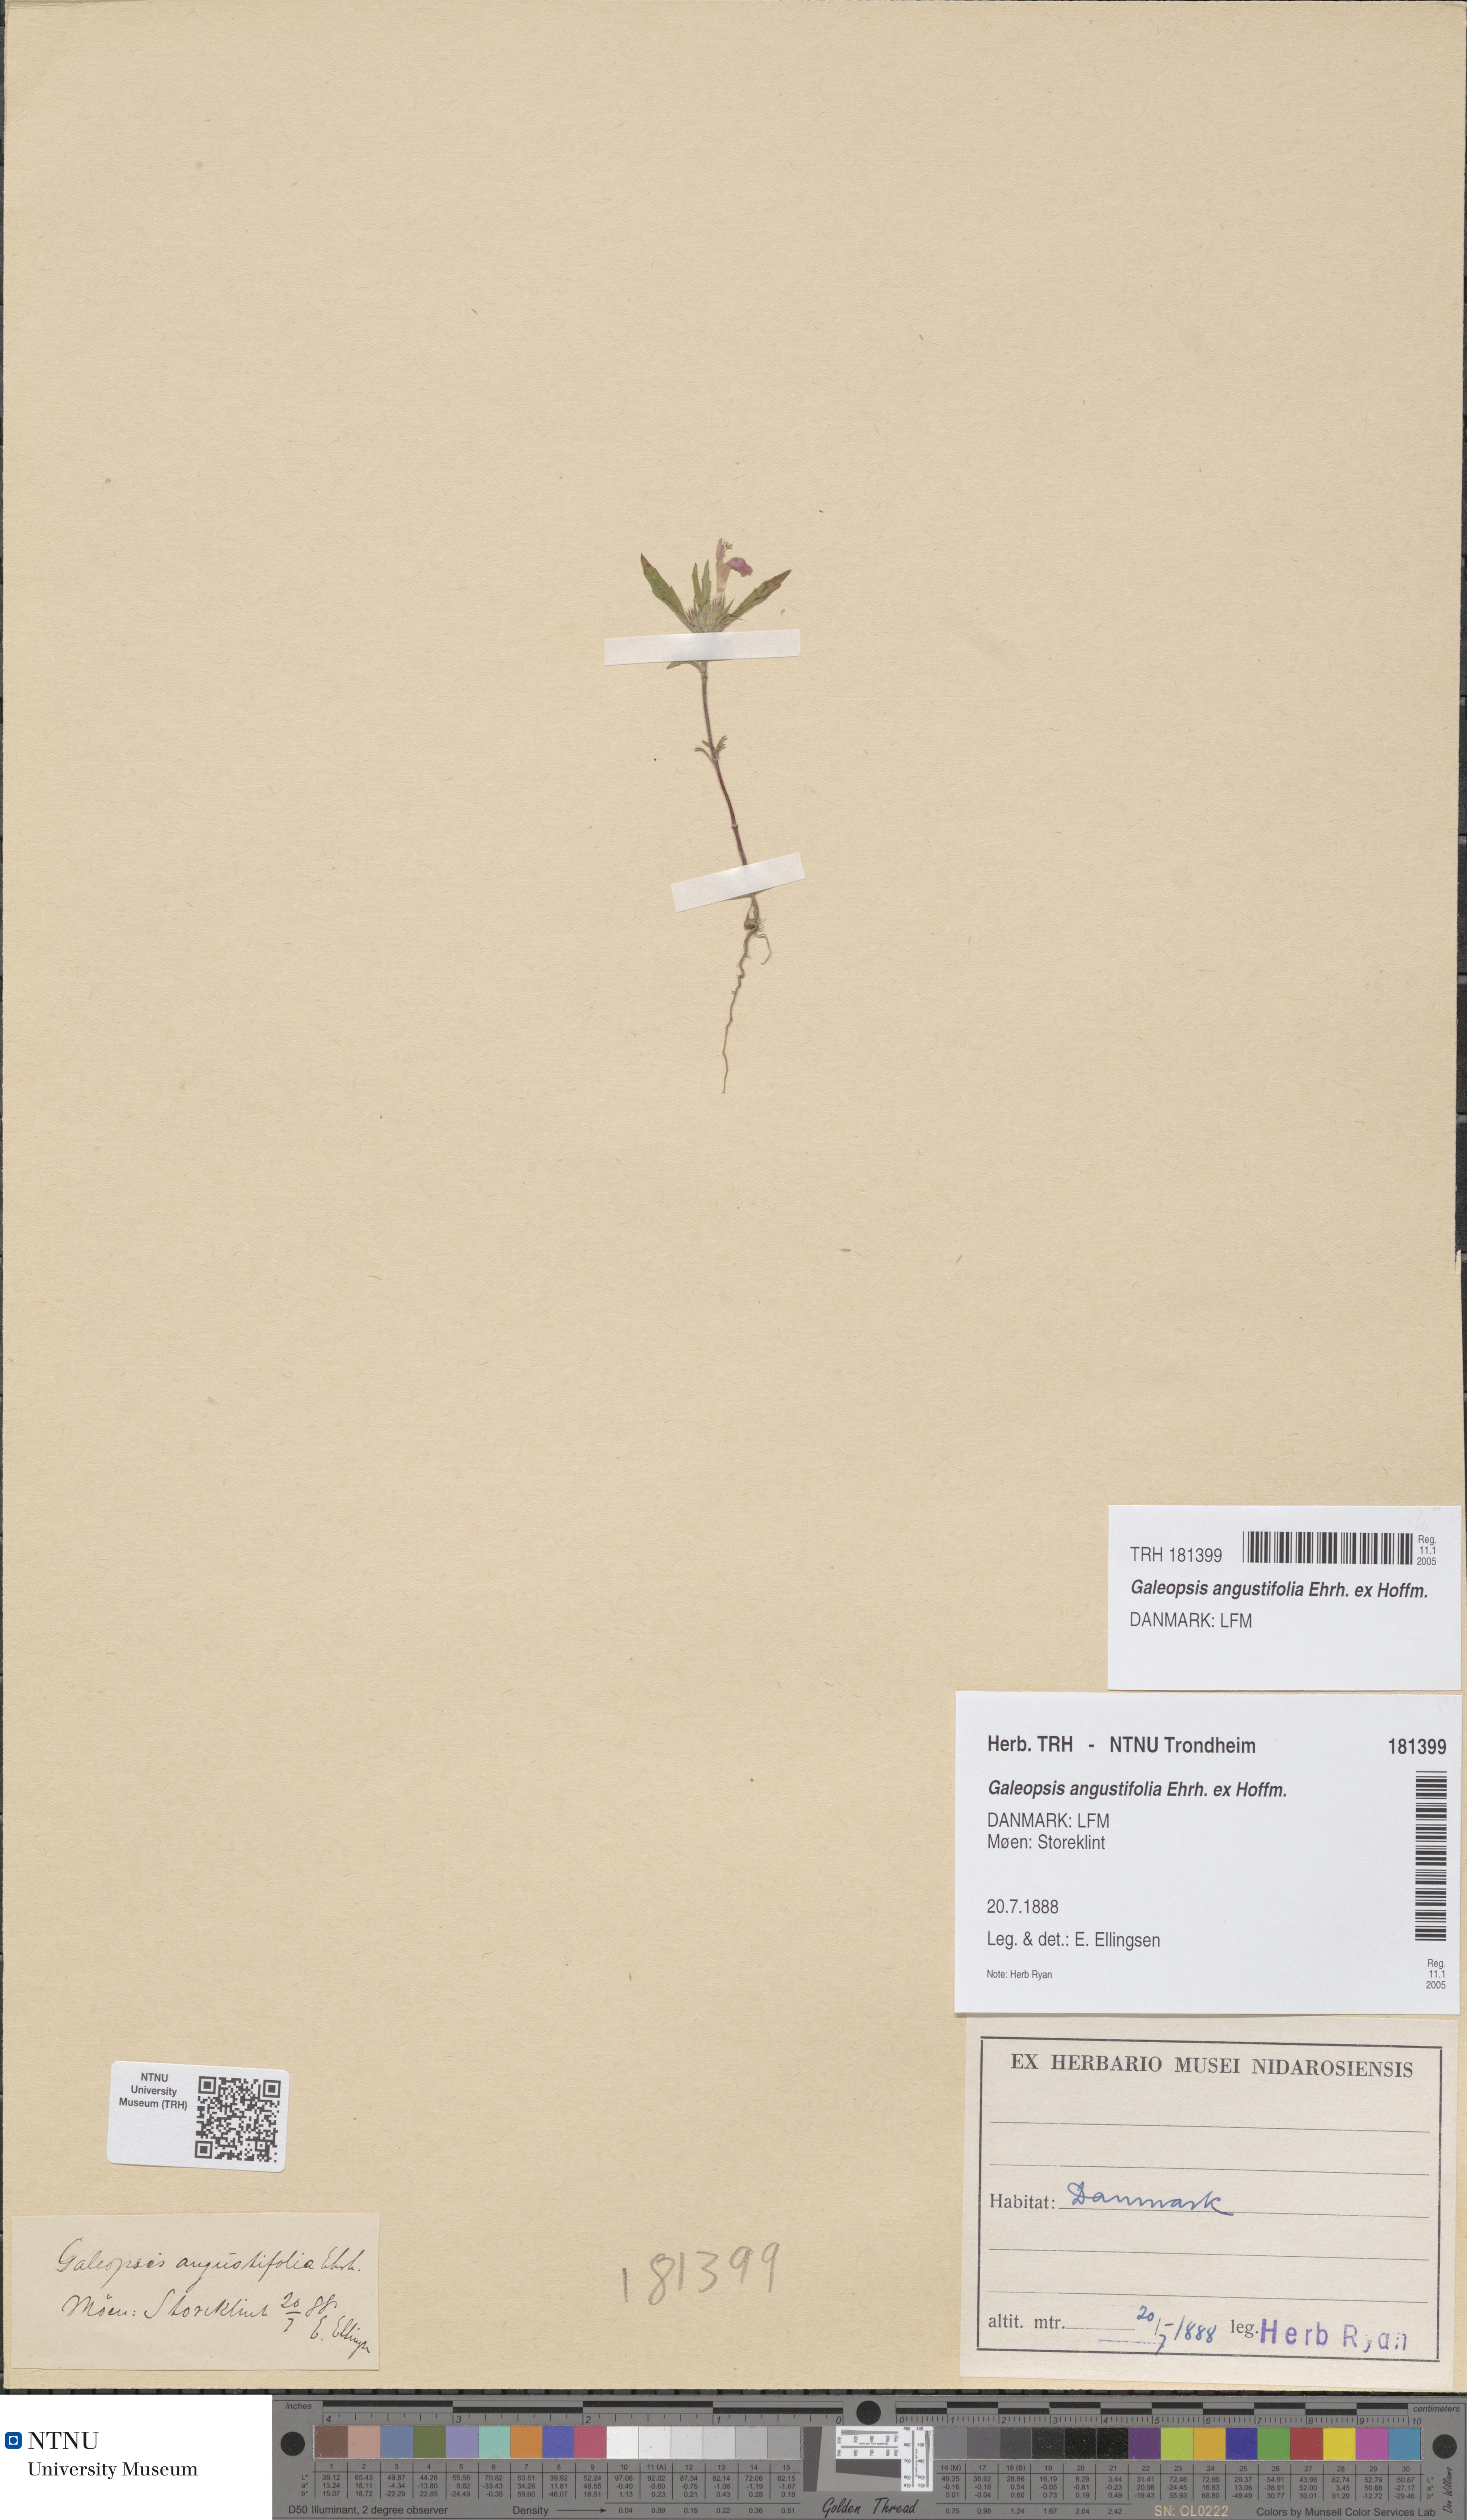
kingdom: Plantae
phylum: Tracheophyta
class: Magnoliopsida
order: Lamiales
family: Lamiaceae
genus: Galeopsis
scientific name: Galeopsis angustifolia
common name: Red hemp-nettle
